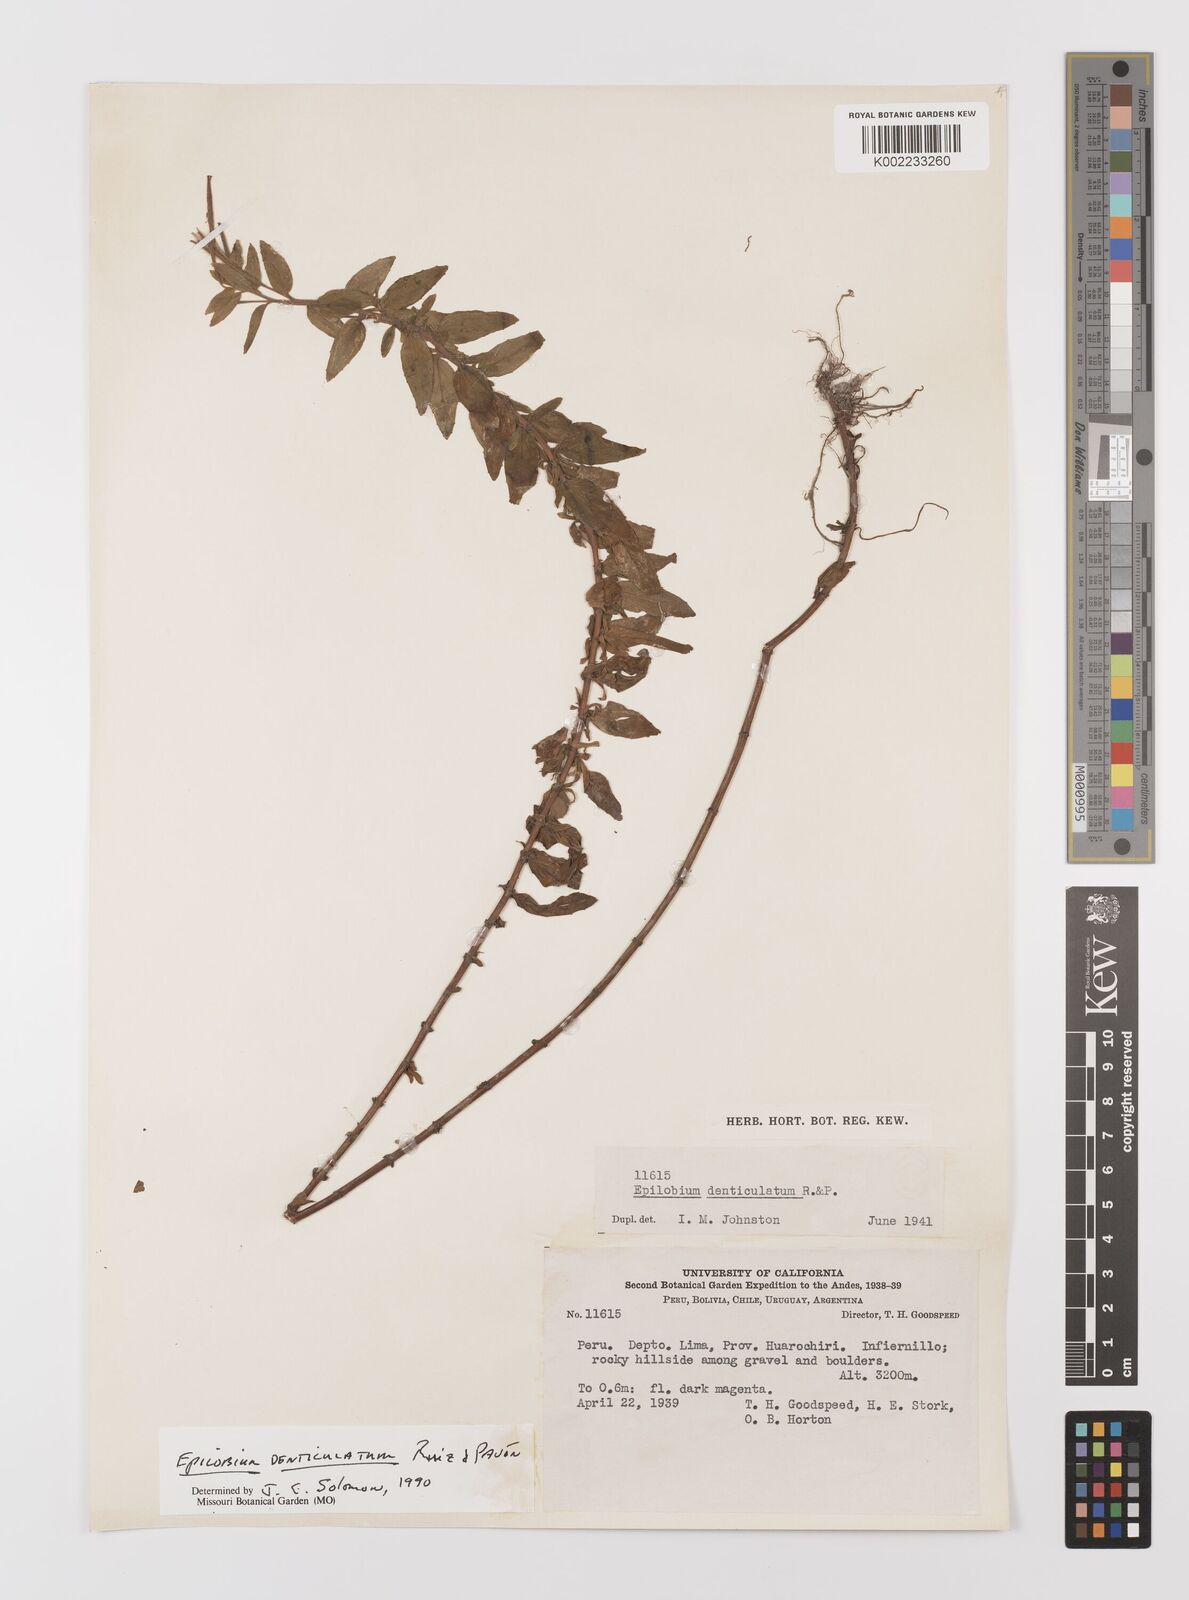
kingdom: Plantae
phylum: Tracheophyta
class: Magnoliopsida
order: Myrtales
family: Onagraceae
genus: Epilobium
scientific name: Epilobium denticulatum
